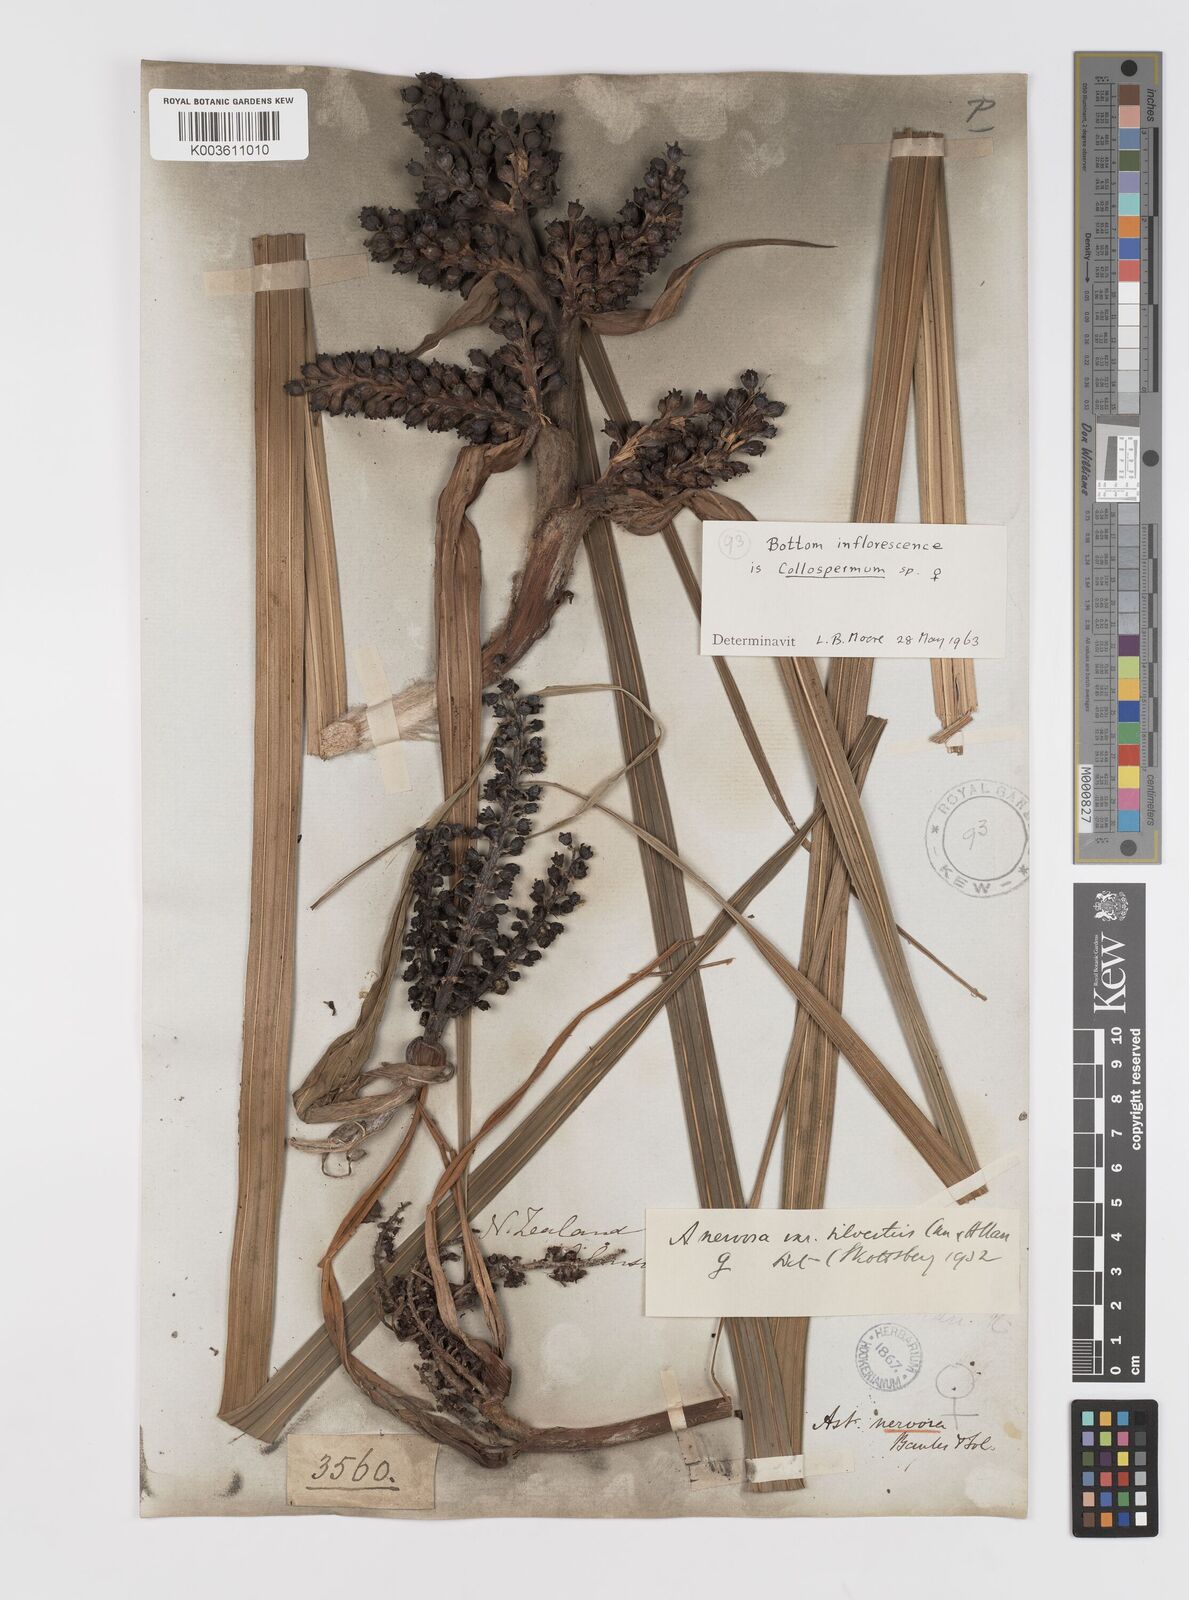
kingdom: Plantae
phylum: Tracheophyta
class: Liliopsida
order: Asparagales
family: Asteliaceae
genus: Astelia
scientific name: Astelia nervosa
